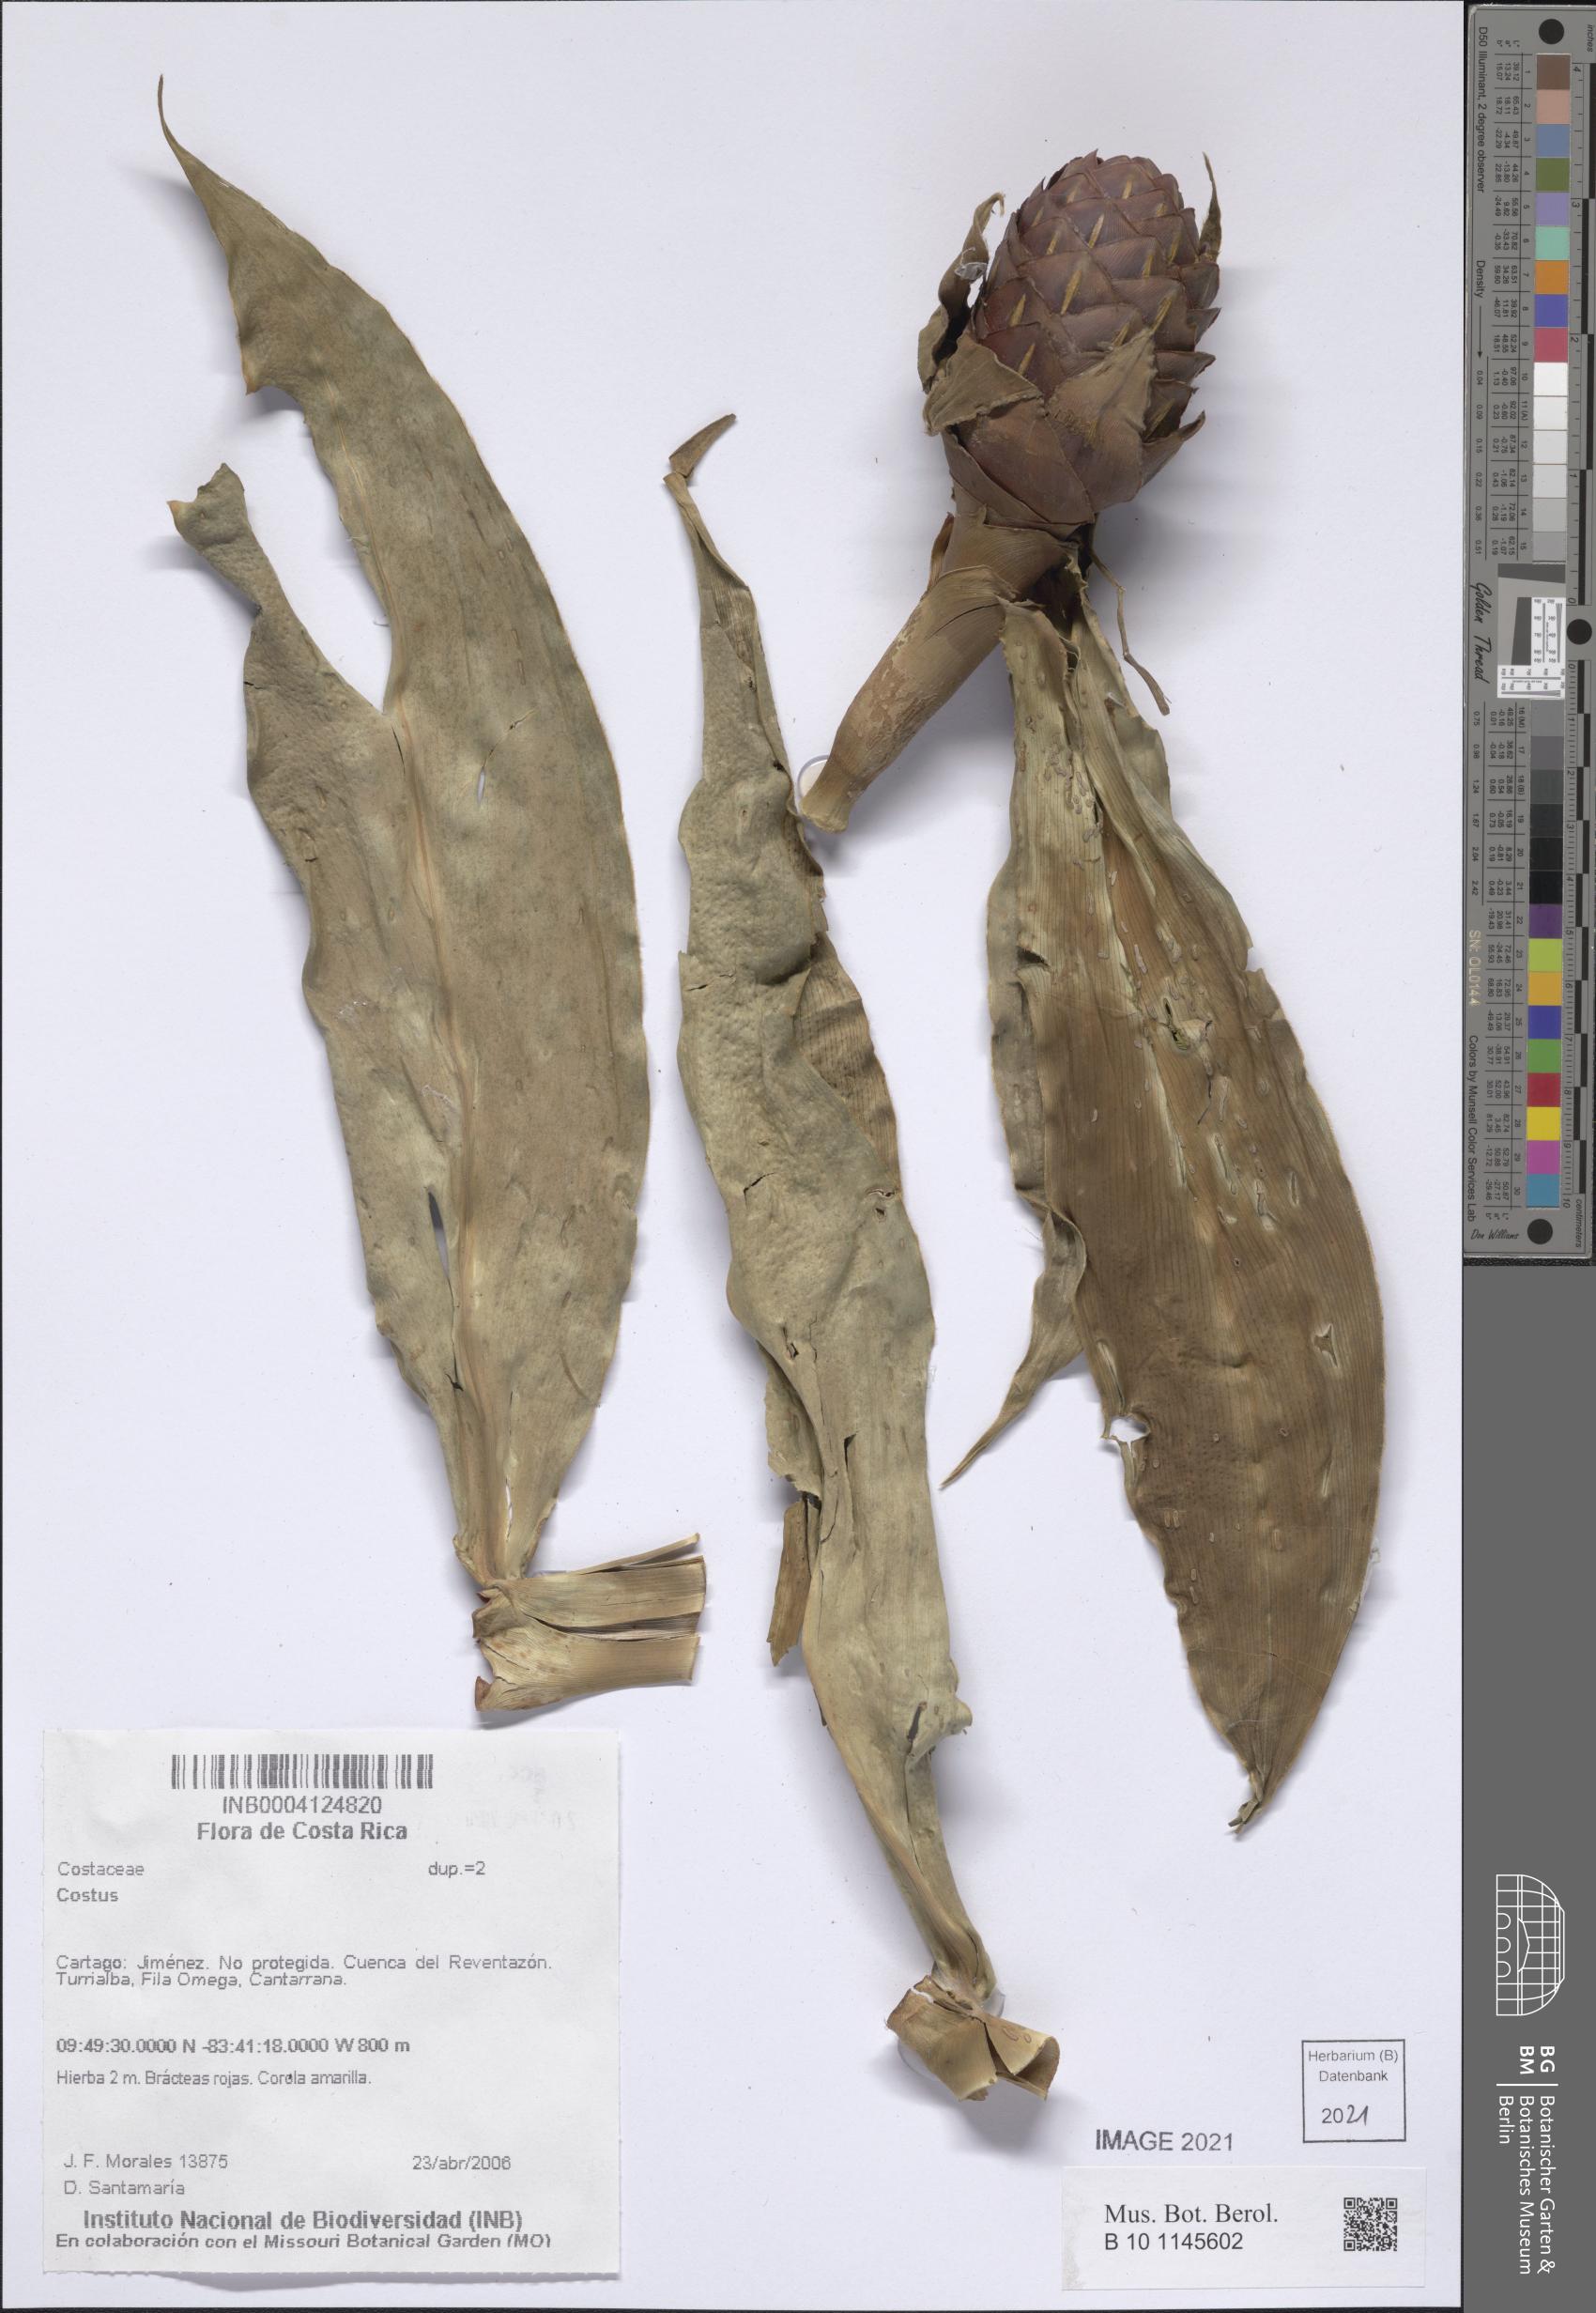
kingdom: Plantae
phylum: Tracheophyta
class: Liliopsida
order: Zingiberales
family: Costaceae
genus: Costus
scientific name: Costus
